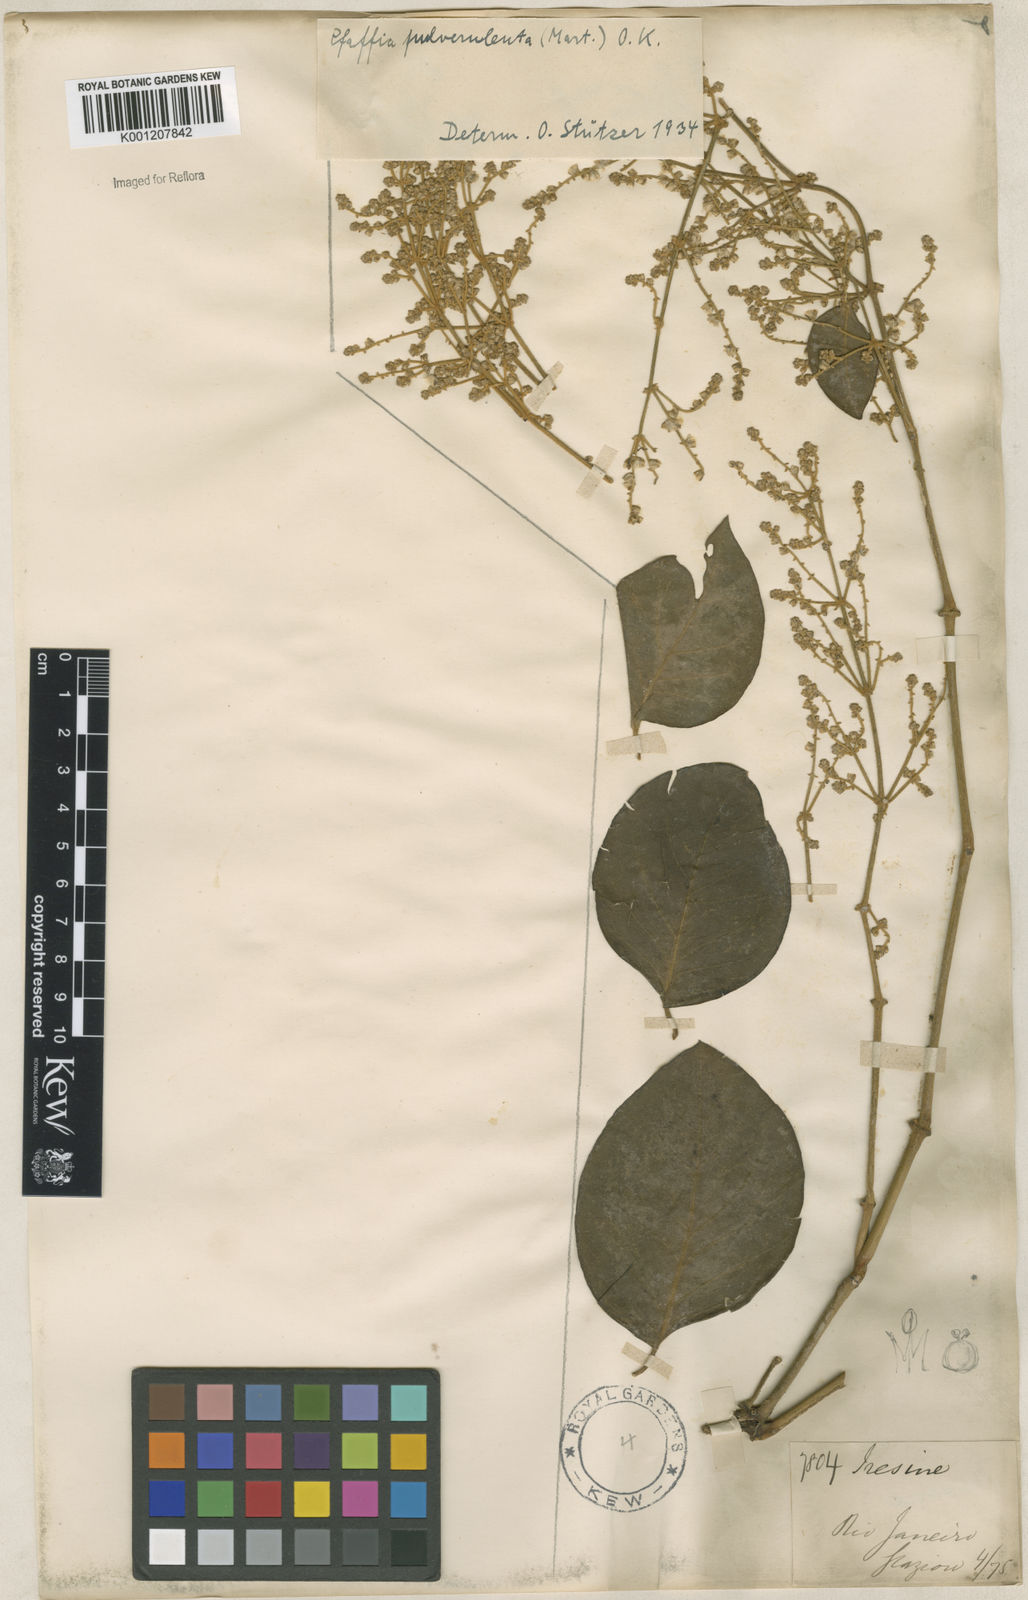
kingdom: Plantae
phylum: Tracheophyta
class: Magnoliopsida
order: Caryophyllales
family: Amaranthaceae
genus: Hebanthe
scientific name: Hebanthe pulverulenta
